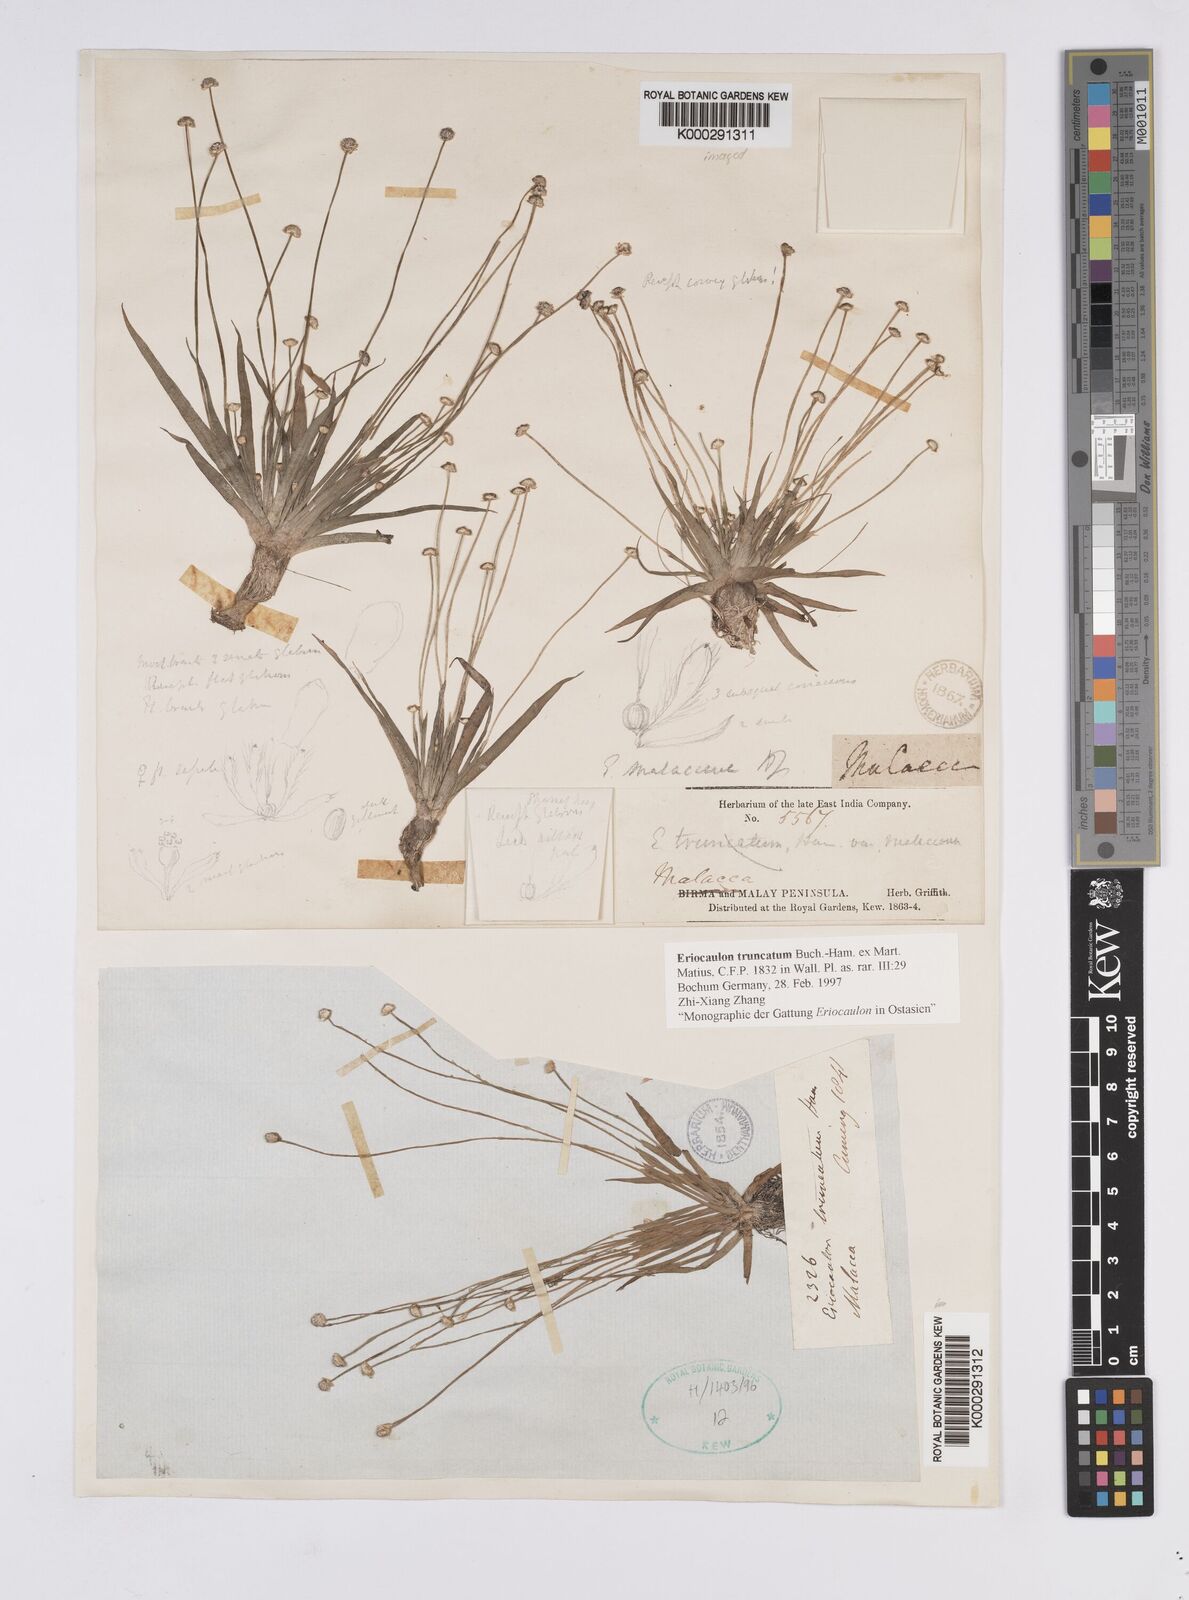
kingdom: Plantae
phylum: Tracheophyta
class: Liliopsida
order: Poales
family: Eriocaulaceae
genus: Eriocaulon
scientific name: Eriocaulon truncatum
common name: Short pipe-wort
